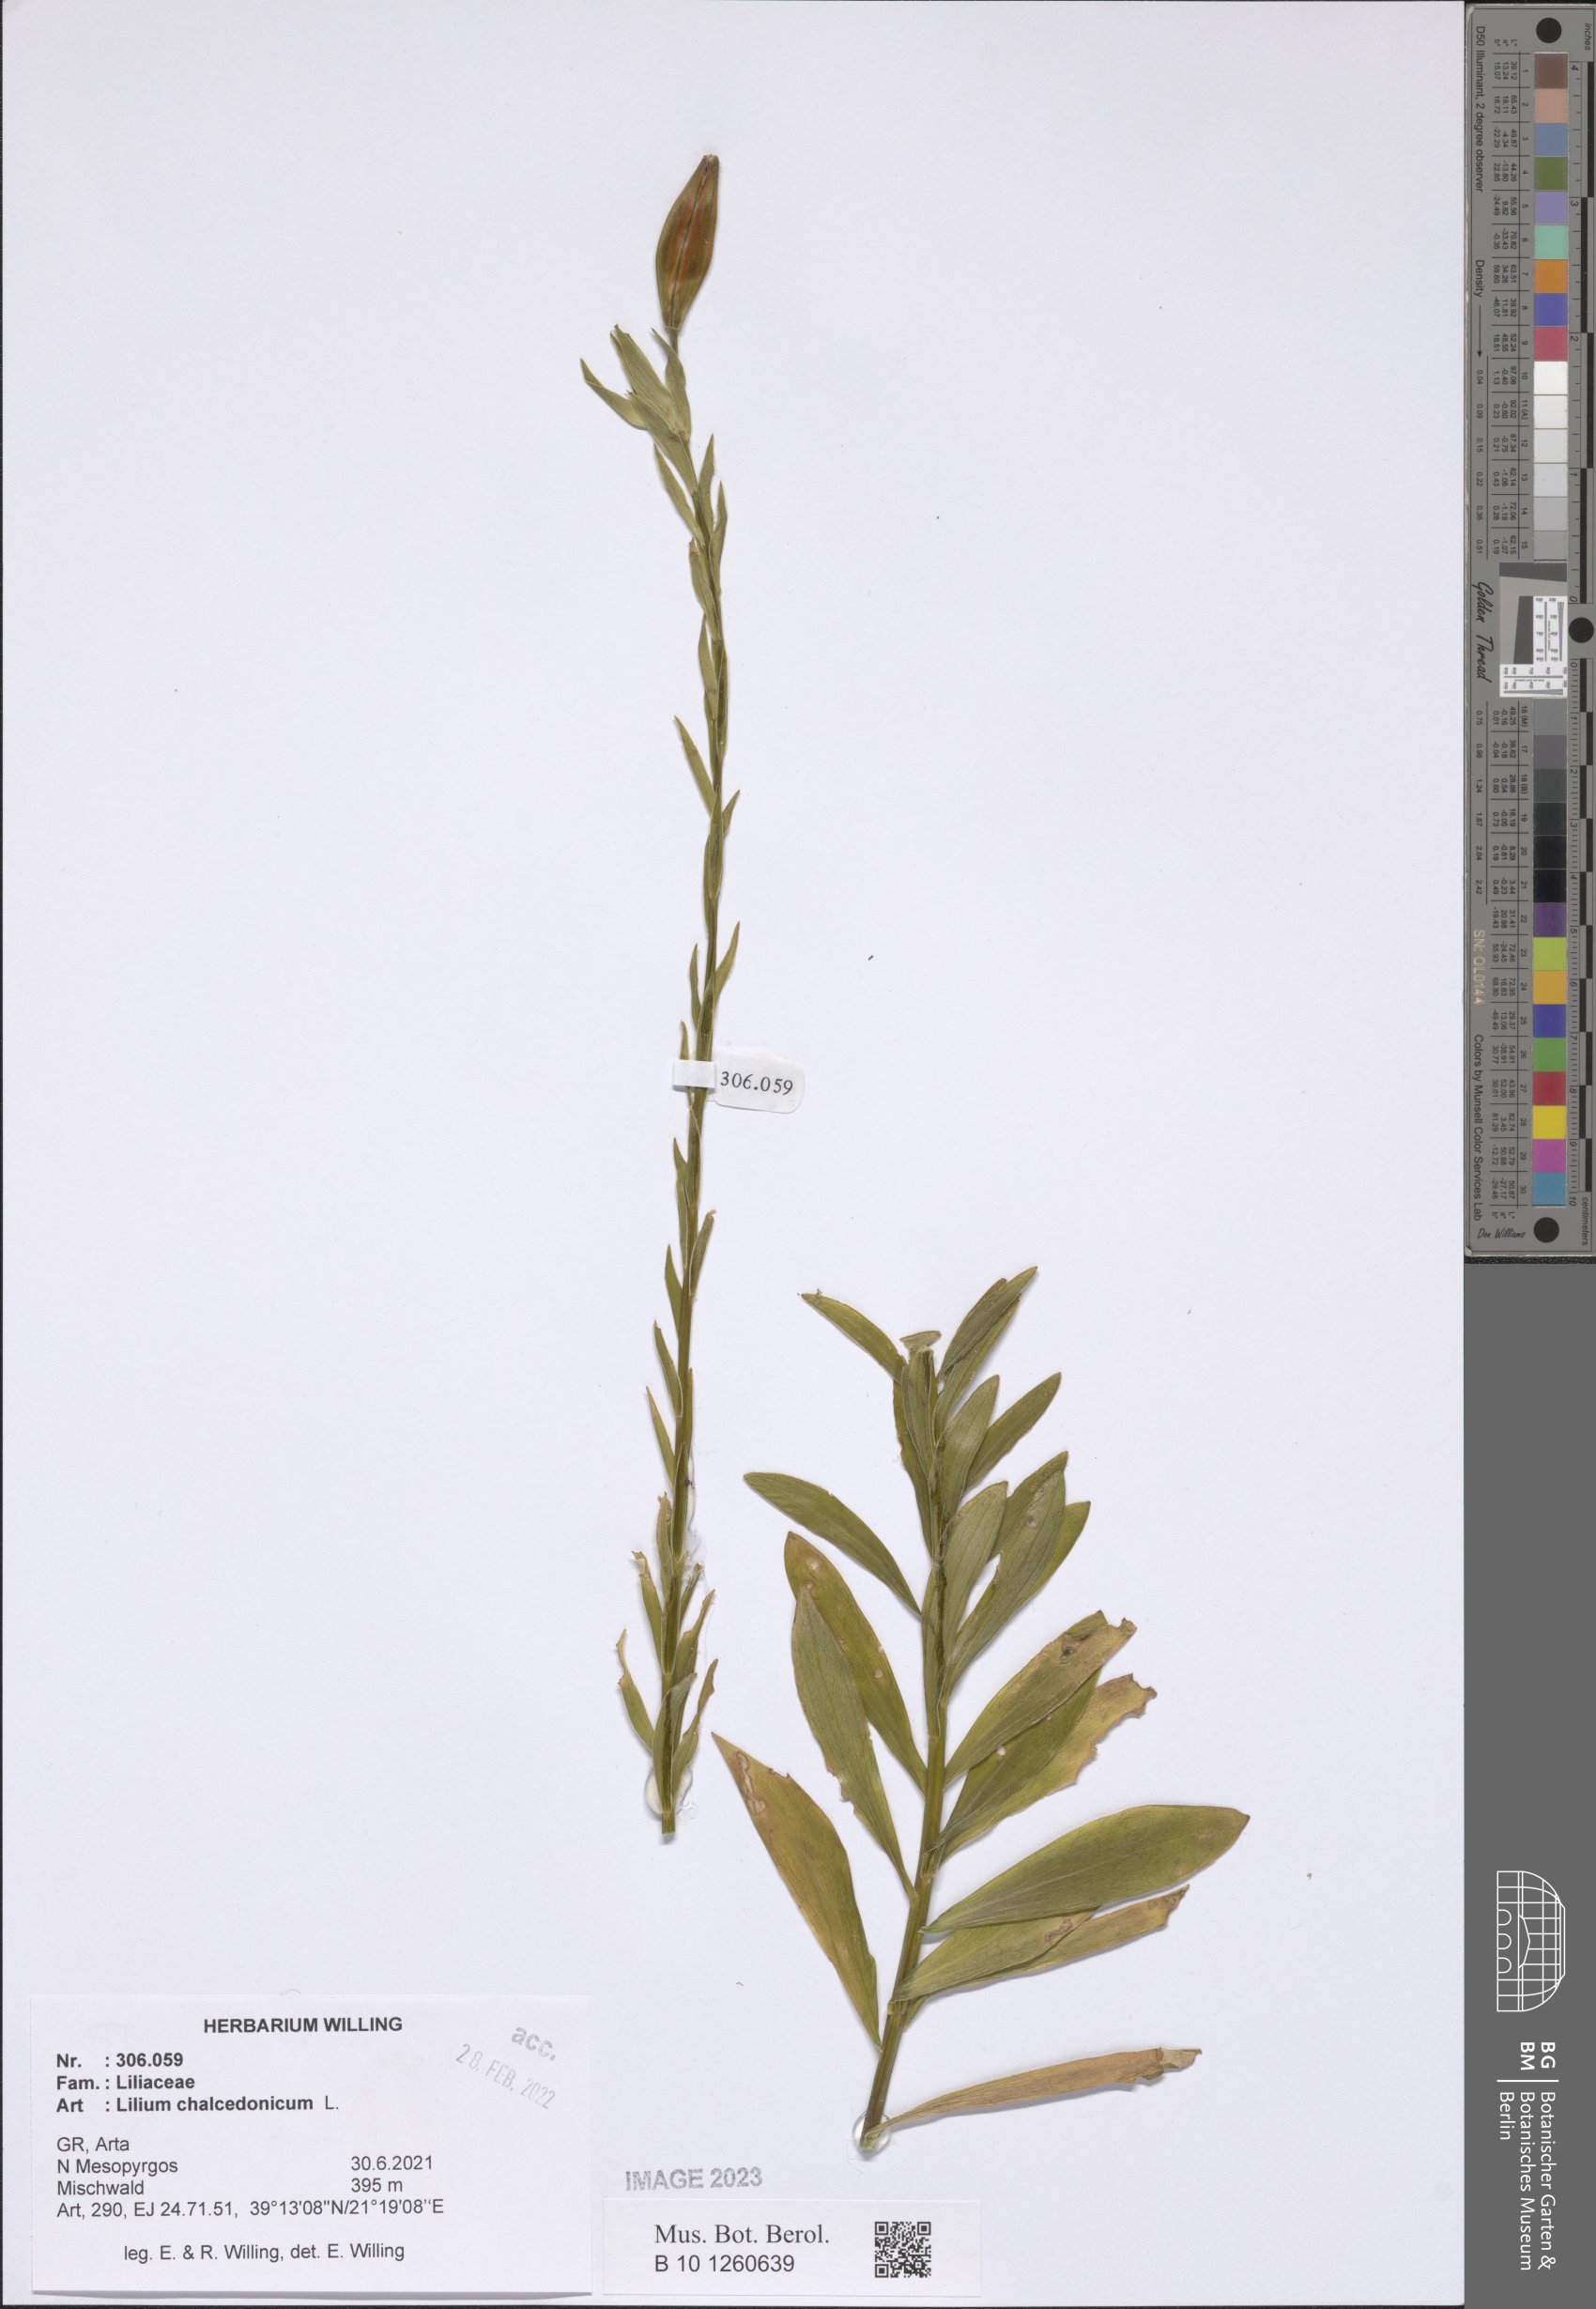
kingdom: Plantae
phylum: Tracheophyta
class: Liliopsida
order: Liliales
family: Liliaceae
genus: Lilium
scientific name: Lilium chalcedonicum
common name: Red martagon of constantinople
